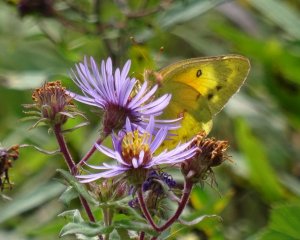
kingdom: Animalia
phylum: Arthropoda
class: Insecta
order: Lepidoptera
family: Pieridae
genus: Colias
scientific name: Colias eurytheme
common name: Orange Sulphur
